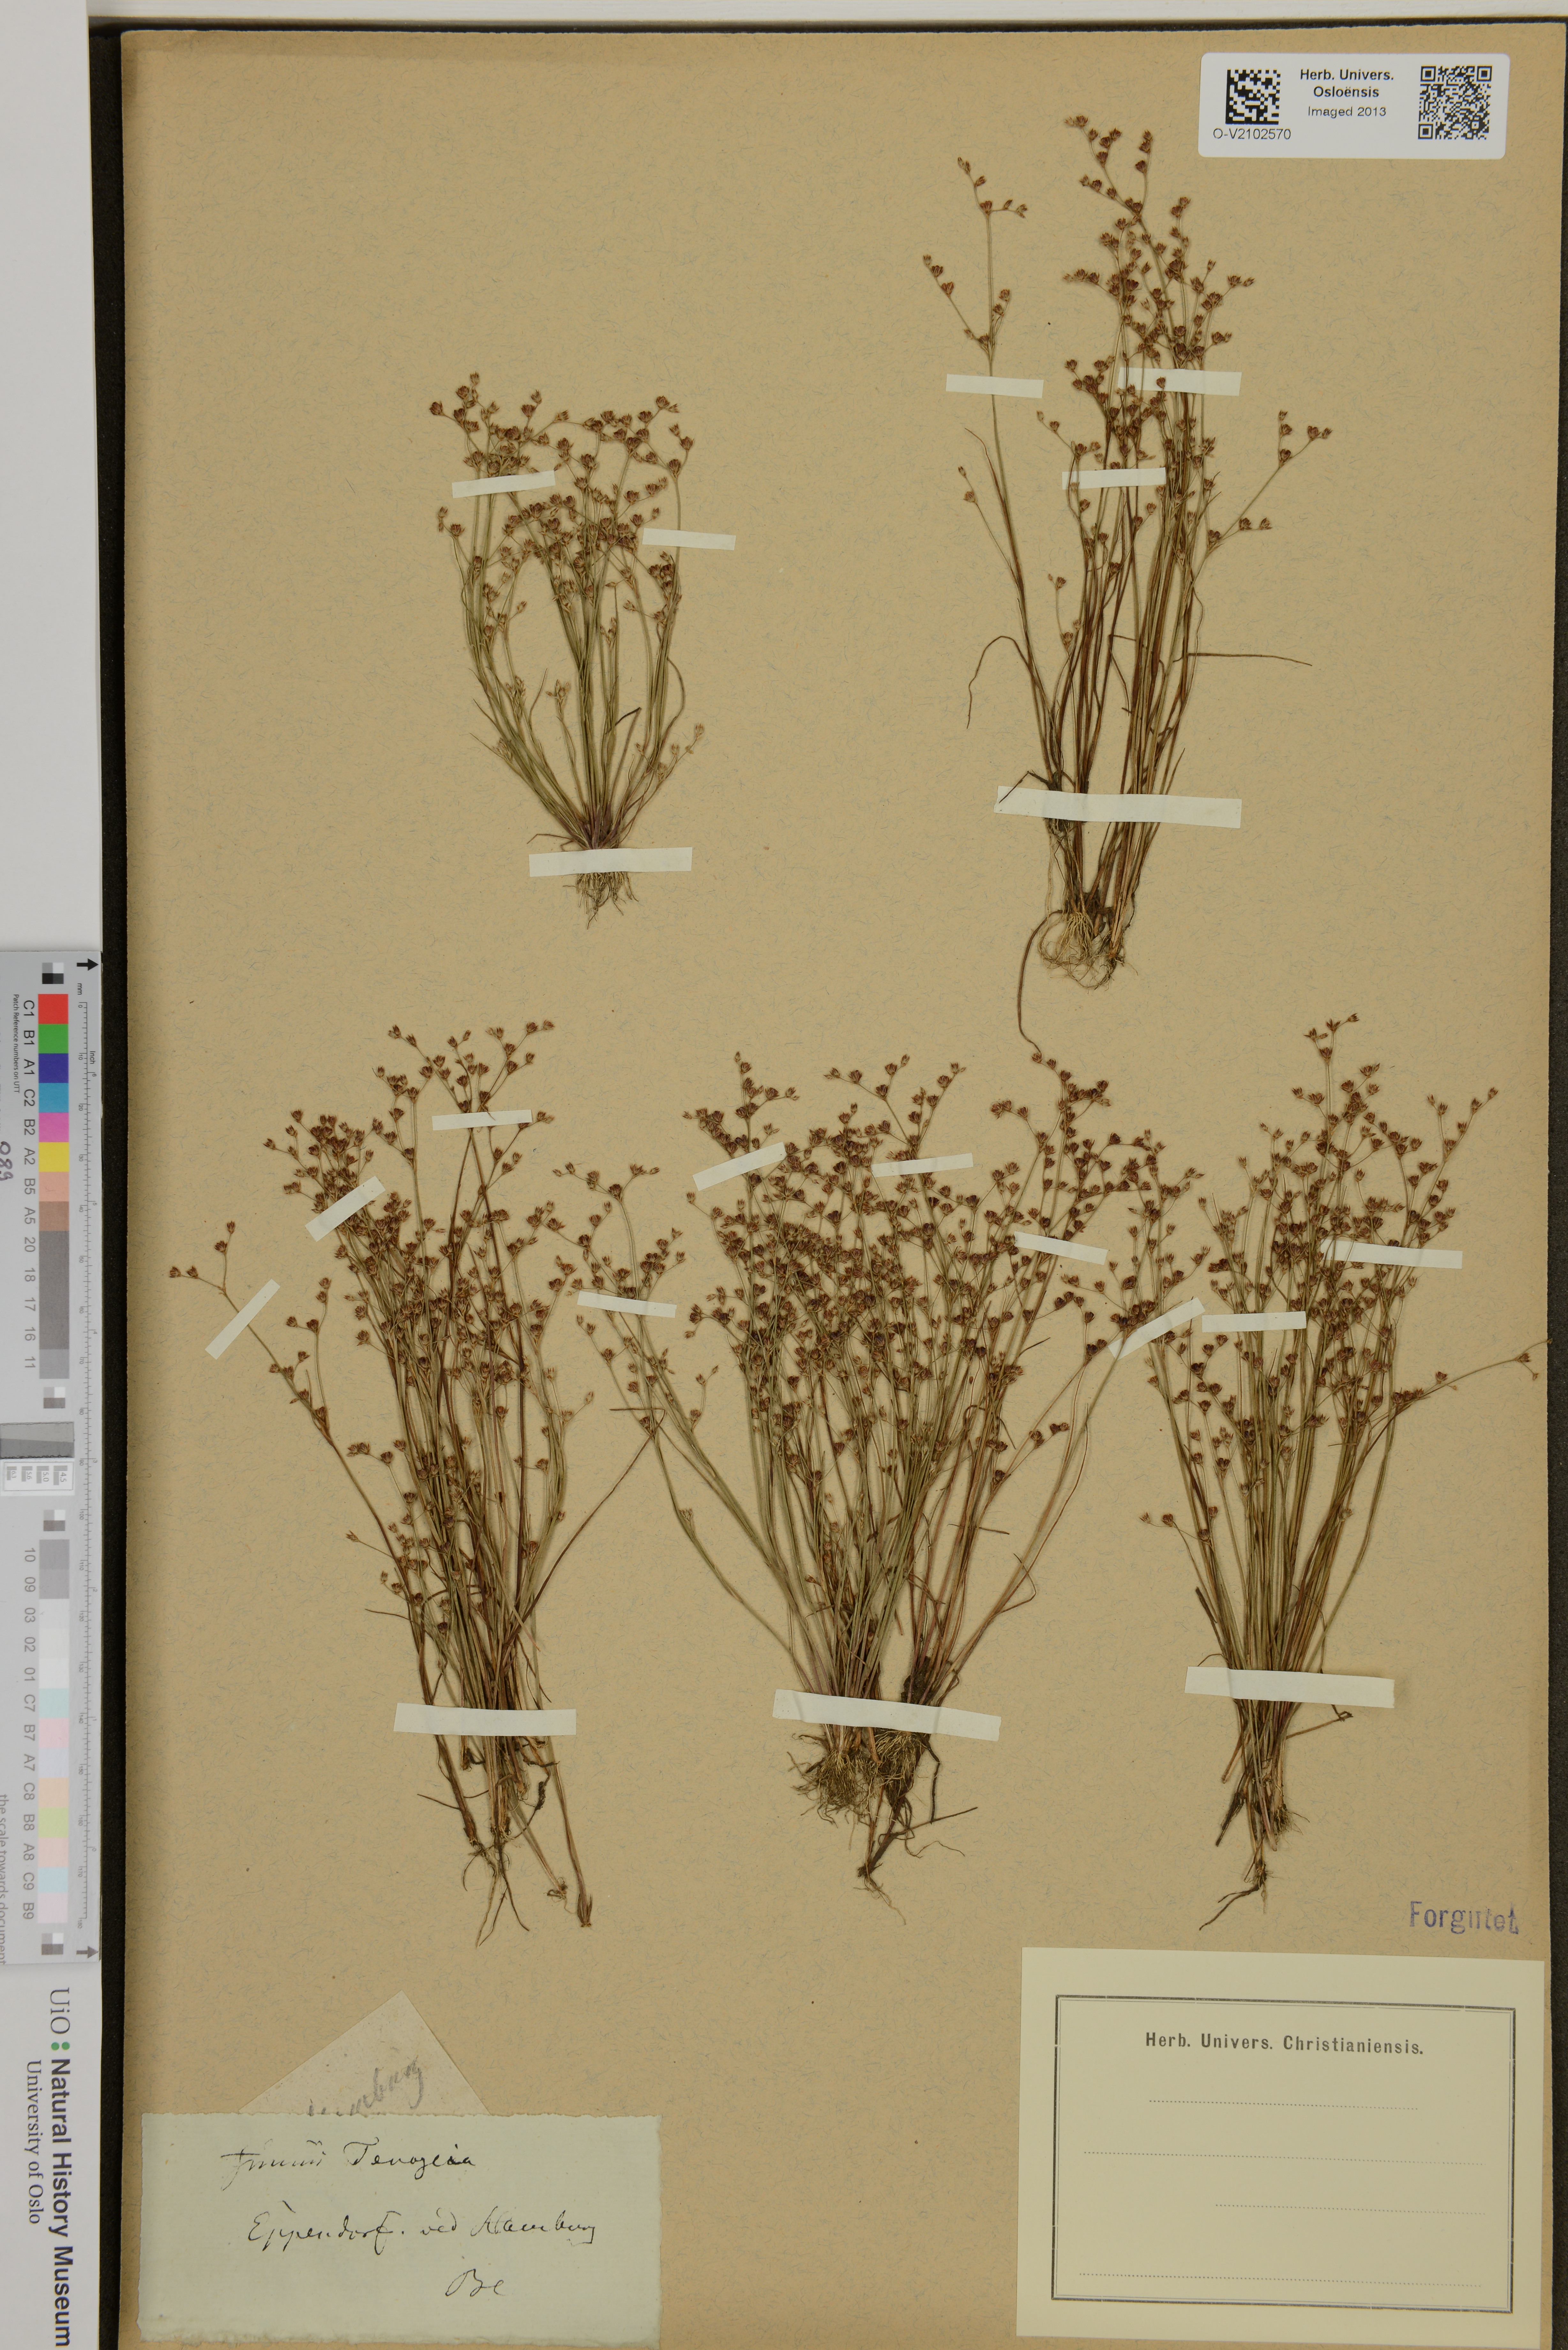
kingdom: Plantae
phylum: Tracheophyta
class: Liliopsida
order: Poales
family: Juncaceae
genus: Juncus
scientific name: Juncus tenageia
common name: Sand rush
